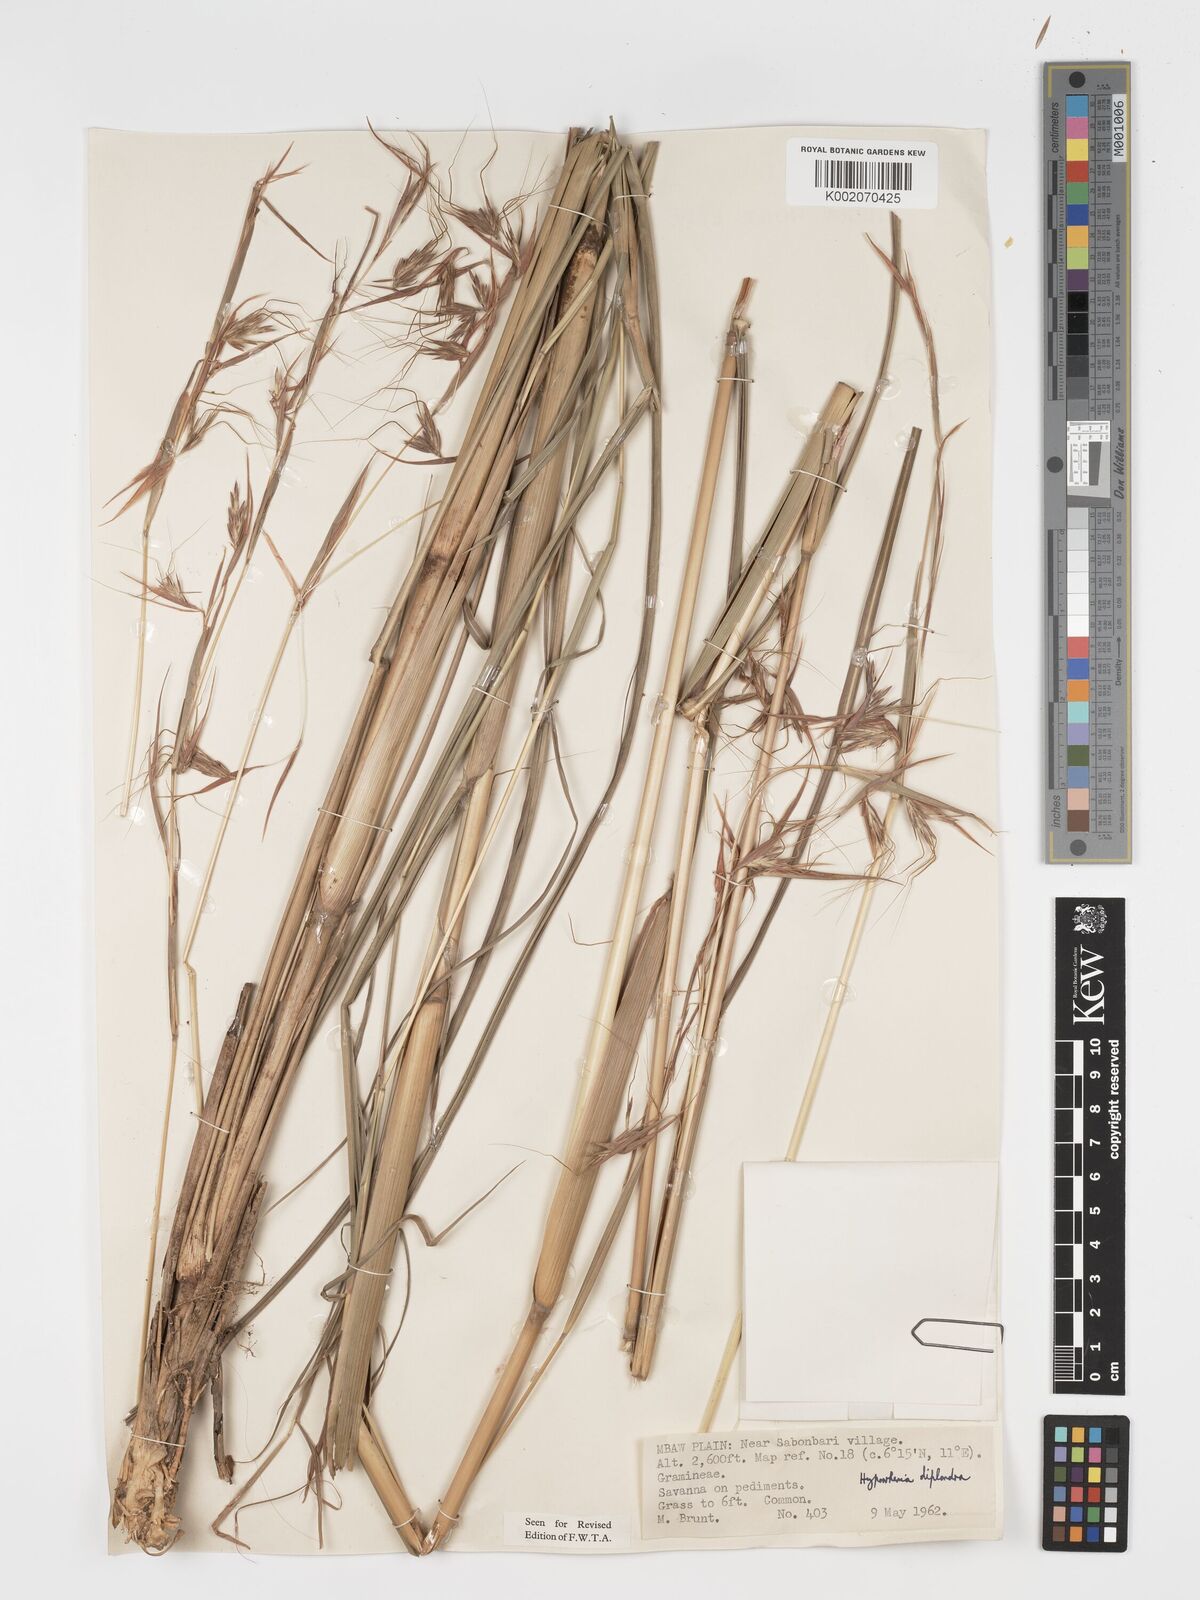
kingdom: Plantae
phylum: Tracheophyta
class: Liliopsida
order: Poales
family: Poaceae
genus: Hyparrhenia
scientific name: Hyparrhenia diplandra
